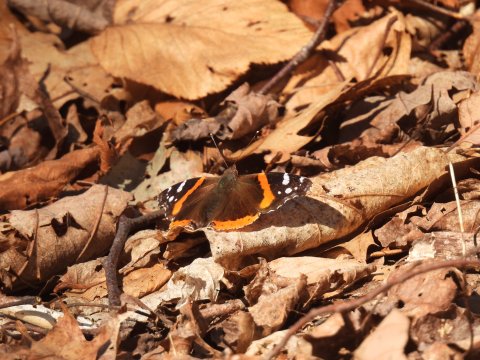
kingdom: Animalia
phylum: Arthropoda
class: Insecta
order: Lepidoptera
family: Nymphalidae
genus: Vanessa
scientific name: Vanessa atalanta
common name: Red Admiral
